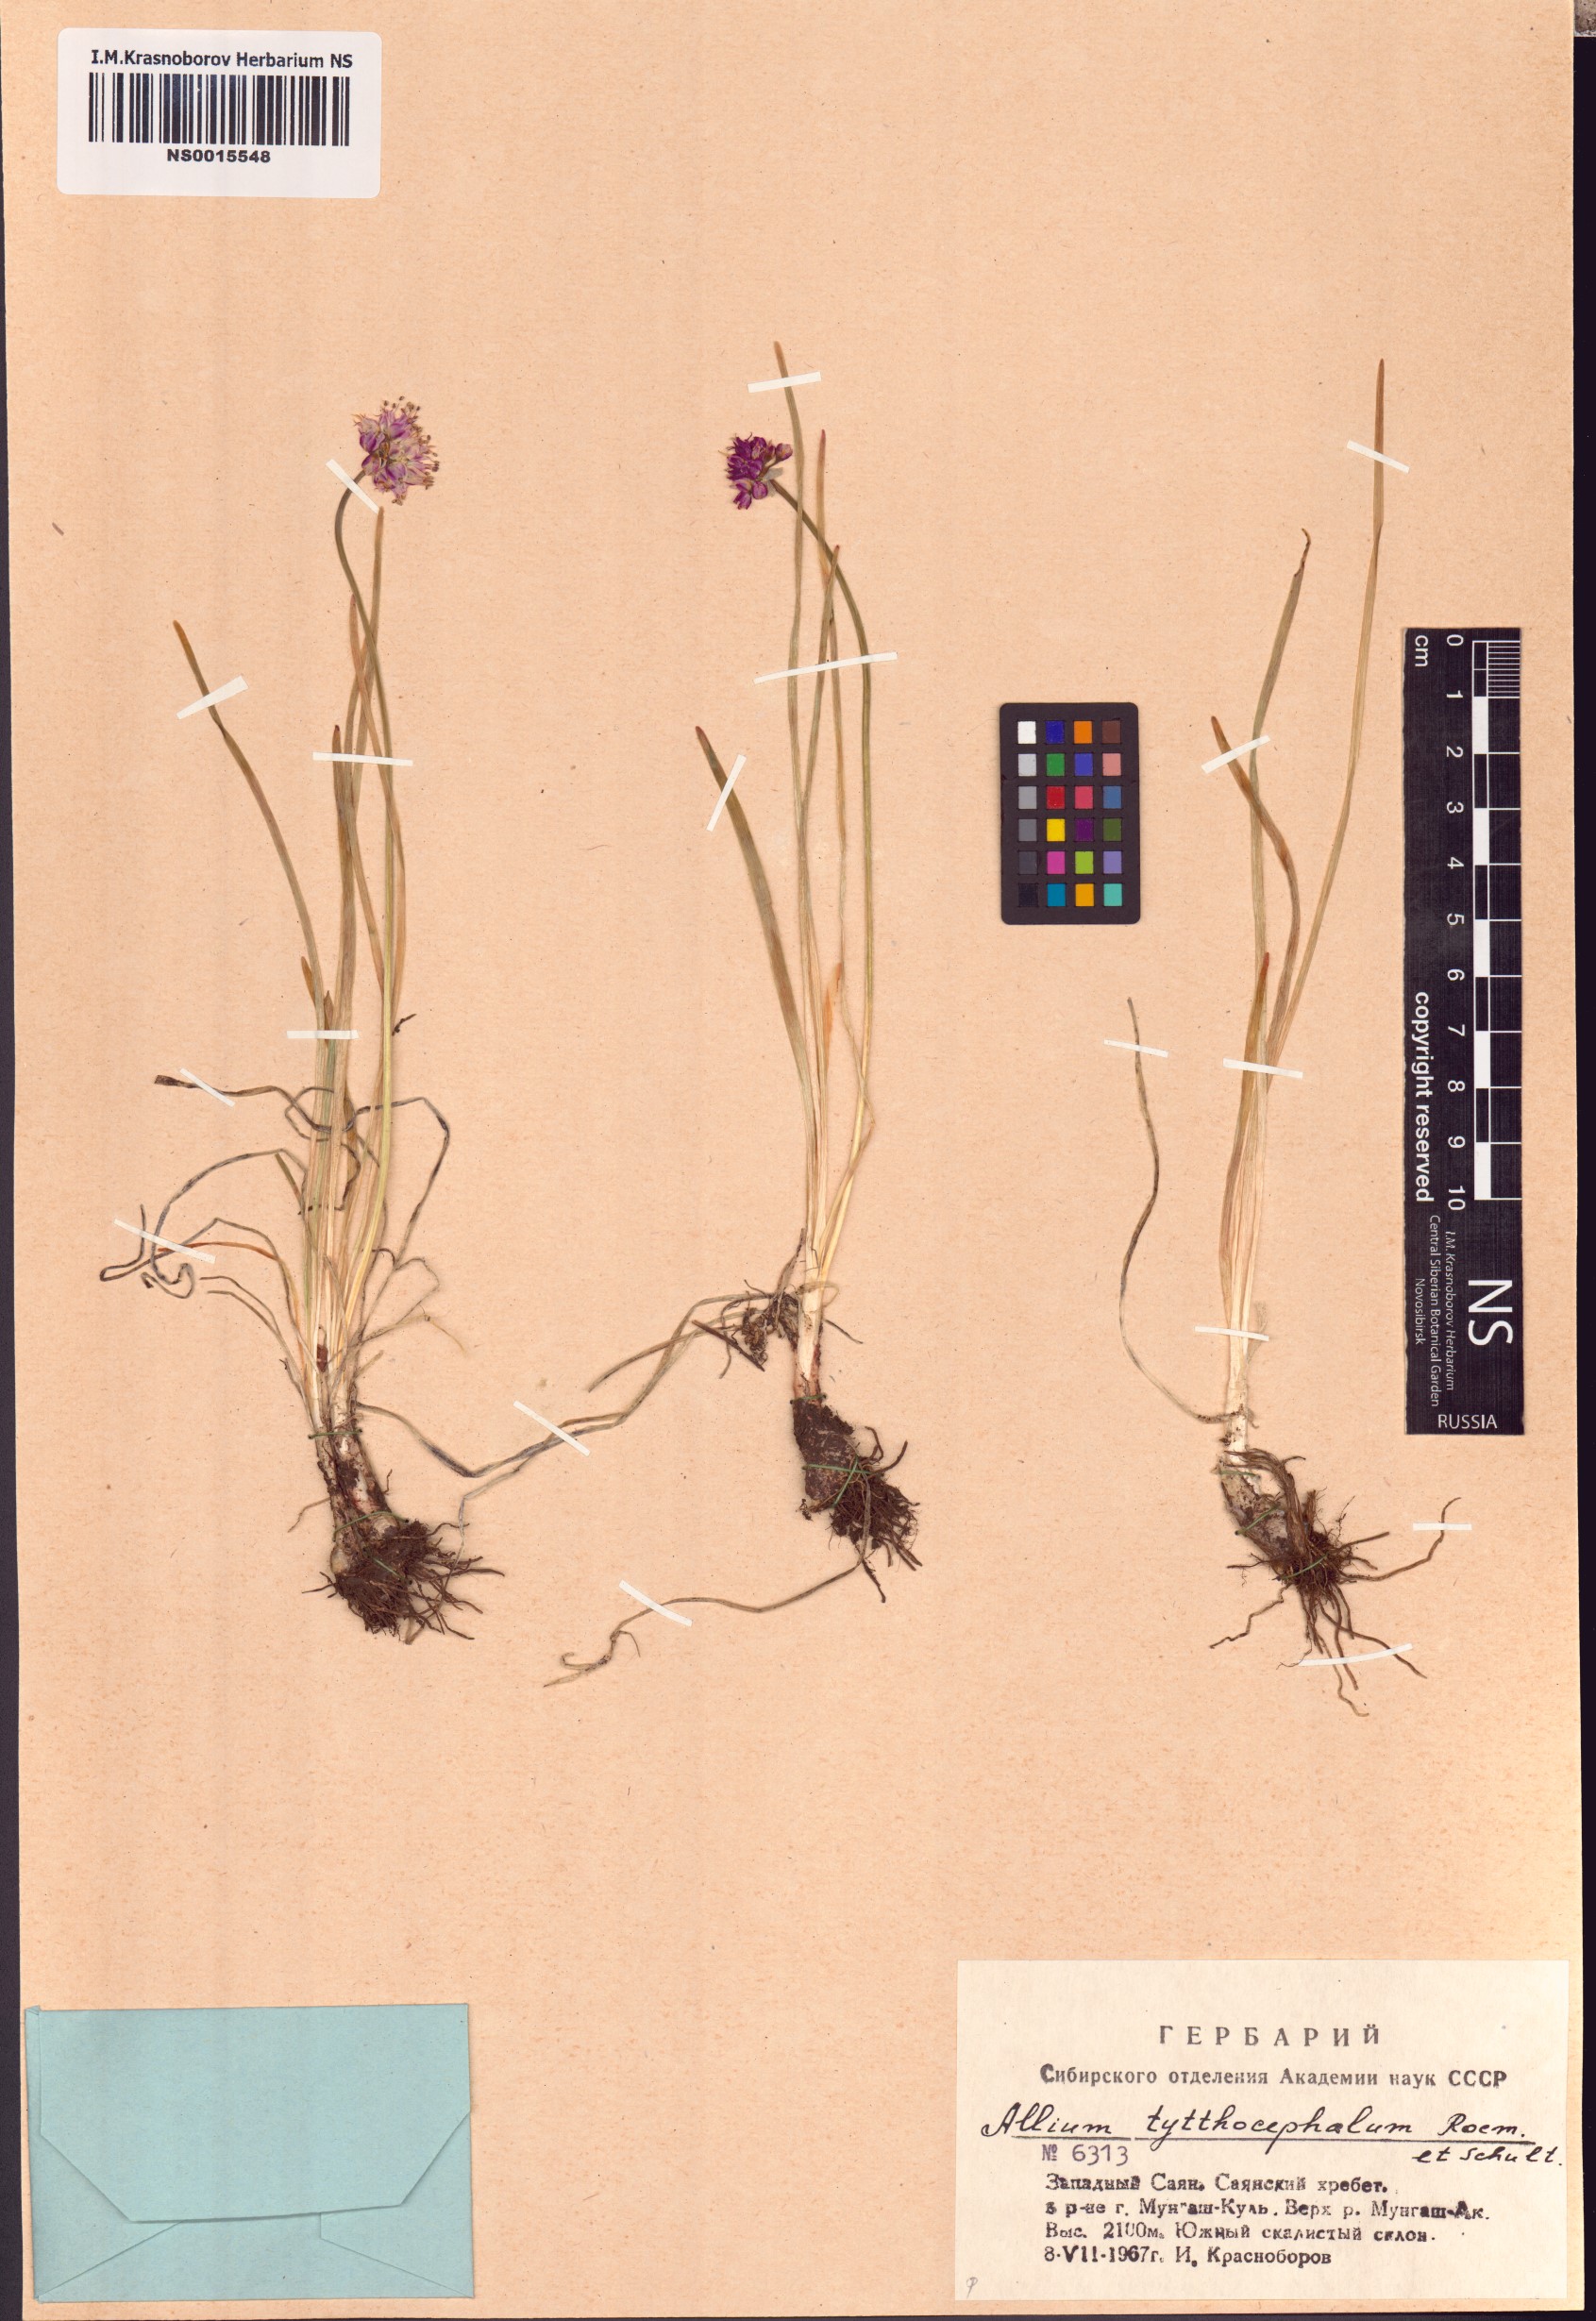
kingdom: Plantae
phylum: Tracheophyta
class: Liliopsida
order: Asparagales
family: Amaryllidaceae
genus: Allium
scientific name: Allium tytthocephalum
